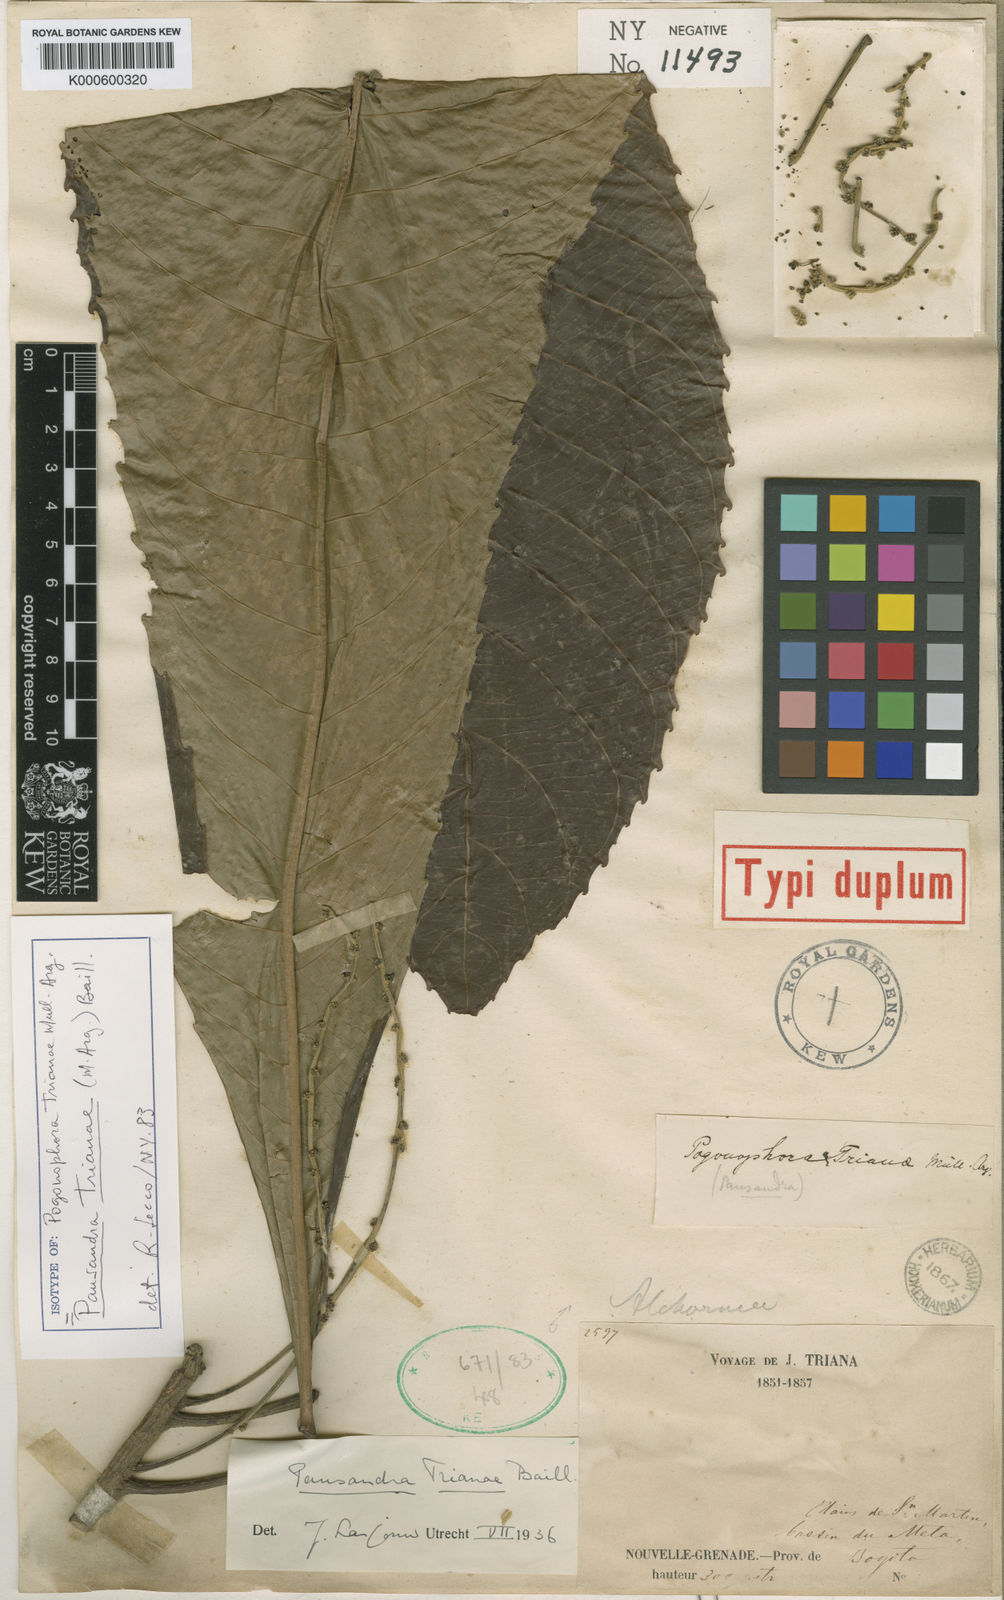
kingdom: Plantae
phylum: Tracheophyta
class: Magnoliopsida
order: Malpighiales
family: Euphorbiaceae
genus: Pausandra
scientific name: Pausandra
